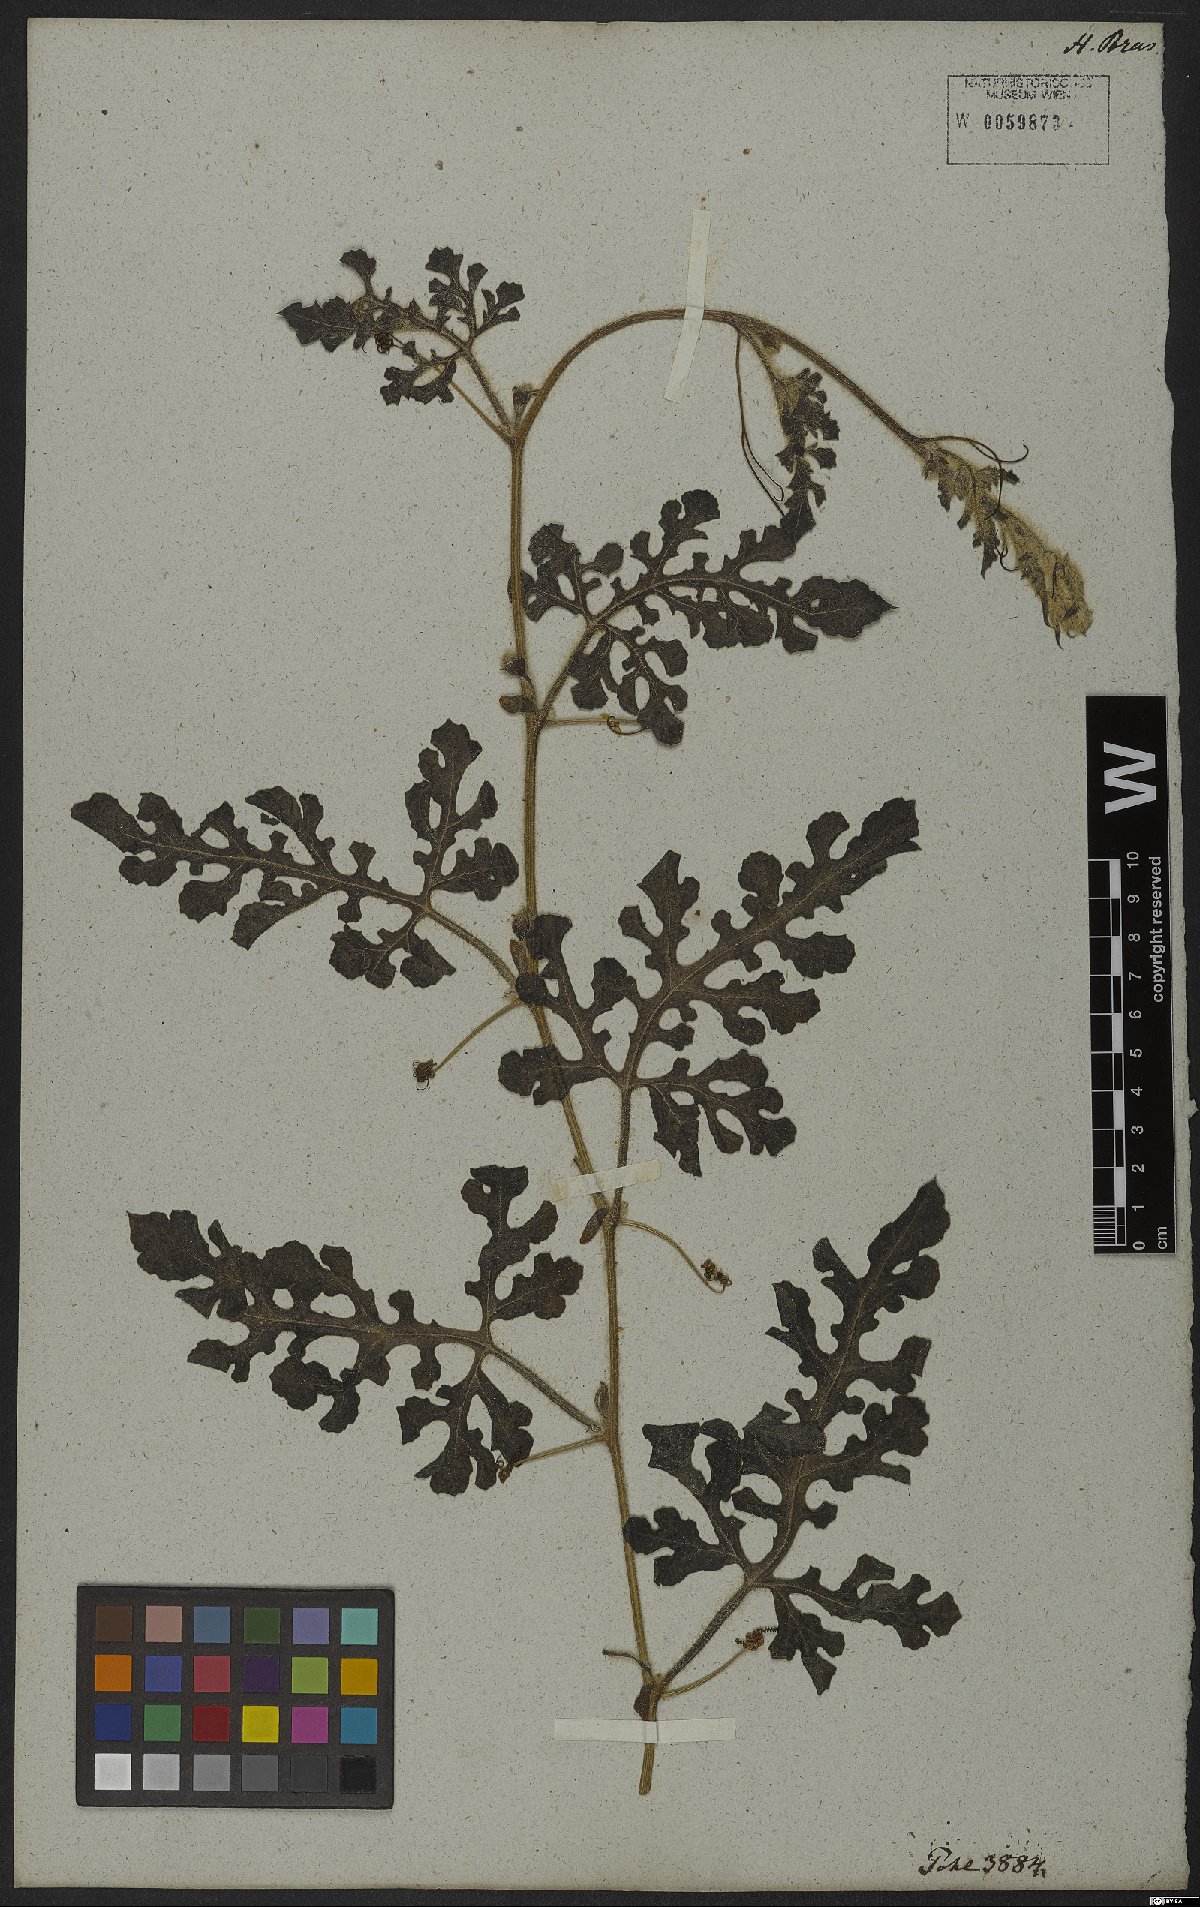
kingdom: Plantae
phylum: Tracheophyta
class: Magnoliopsida
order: Cucurbitales
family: Cucurbitaceae
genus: Citrullus
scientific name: Citrullus
